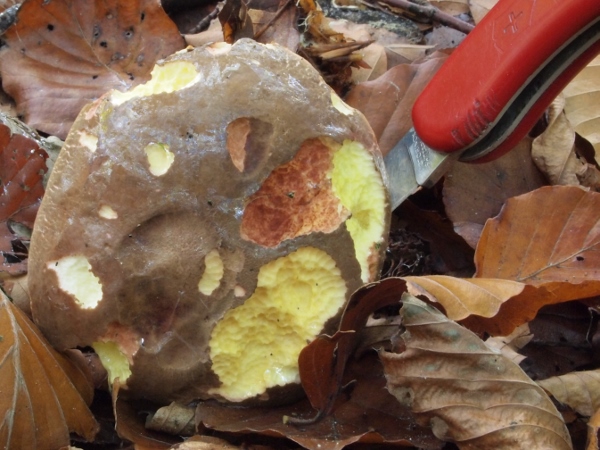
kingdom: Fungi
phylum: Basidiomycota
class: Agaricomycetes
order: Boletales
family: Boletaceae
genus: Xerocomellus
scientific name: Xerocomellus pruinatus
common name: dugget rørhat
